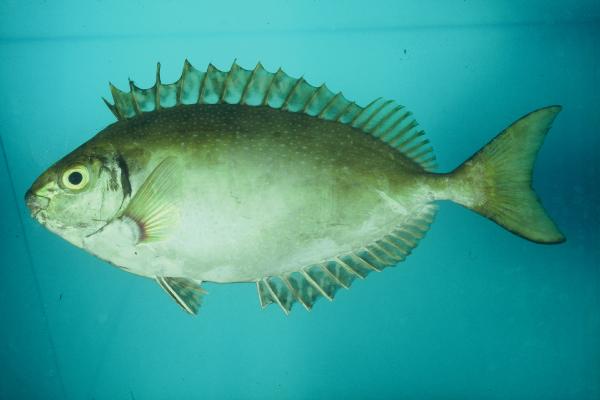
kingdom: Animalia
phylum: Chordata
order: Perciformes
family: Siganidae
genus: Siganus
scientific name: Siganus argenteus
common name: Forktail rabbitfish
